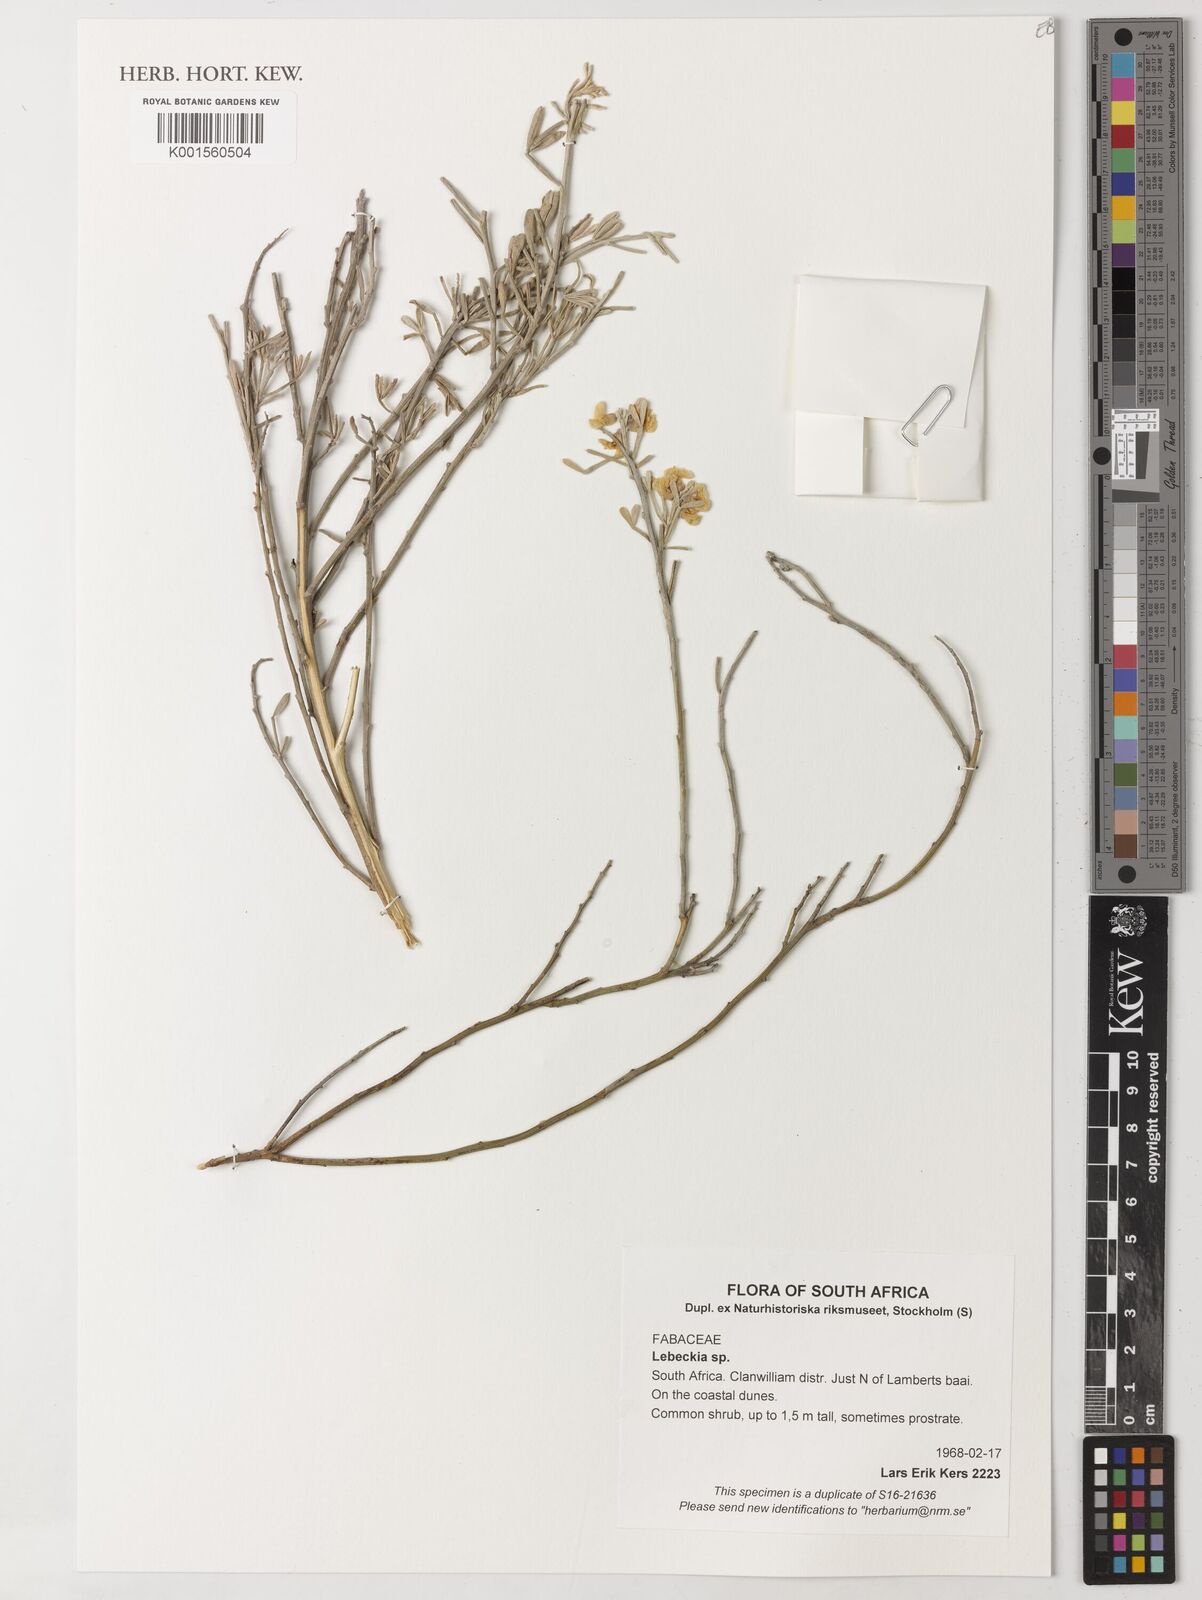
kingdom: Plantae
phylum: Tracheophyta
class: Magnoliopsida
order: Fabales
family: Fabaceae
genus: Lebeckia
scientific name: Lebeckia
